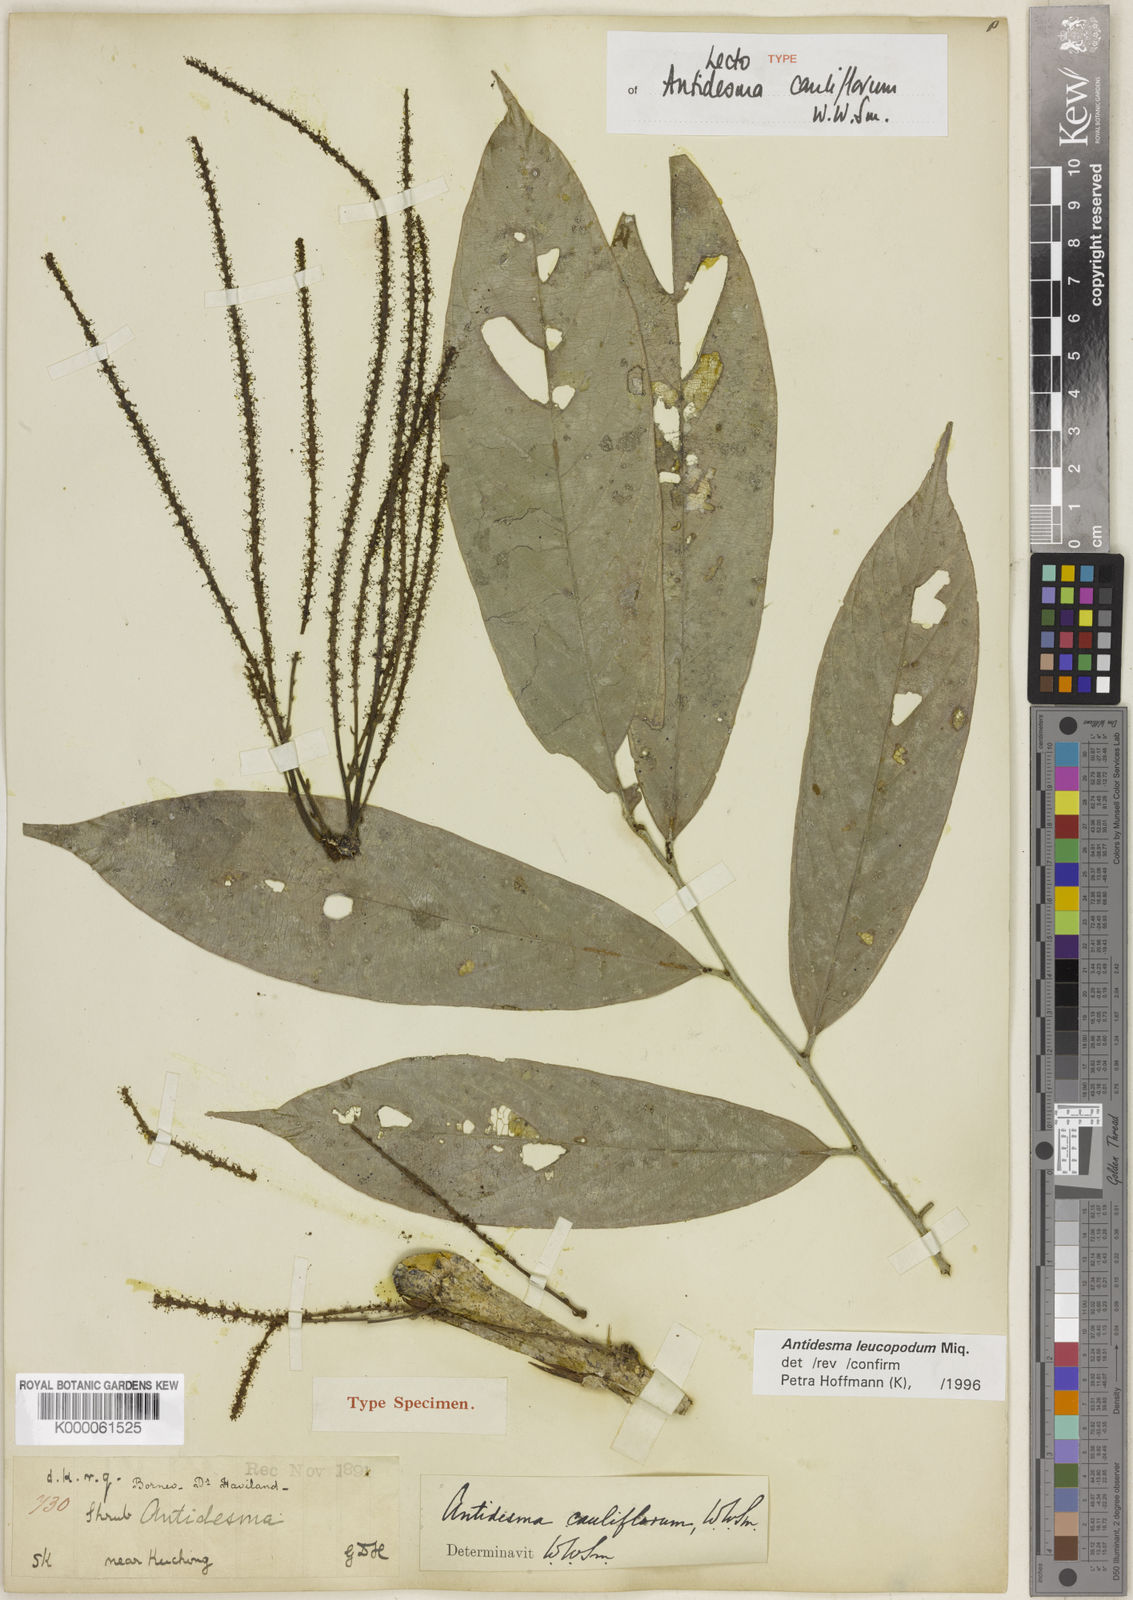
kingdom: Plantae
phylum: Tracheophyta
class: Magnoliopsida
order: Malpighiales
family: Phyllanthaceae
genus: Antidesma
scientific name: Antidesma leucopodum
